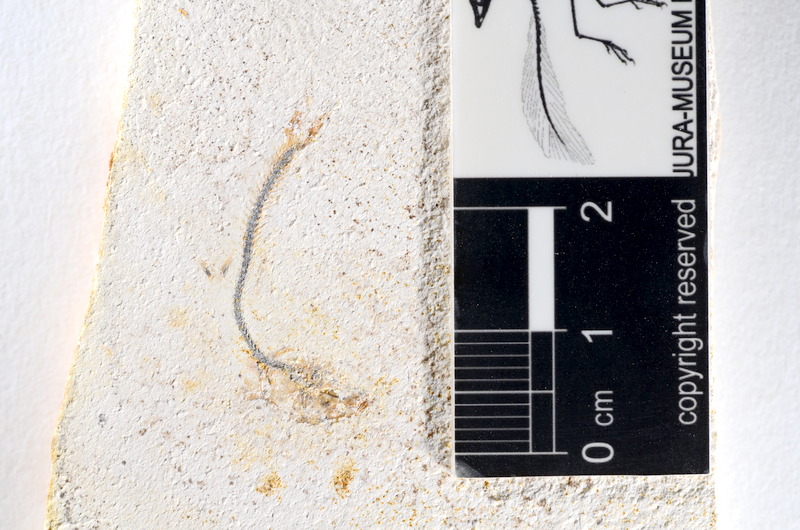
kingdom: Animalia
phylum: Chordata
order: Salmoniformes
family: Orthogonikleithridae
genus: Orthogonikleithrus
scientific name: Orthogonikleithrus hoelli
